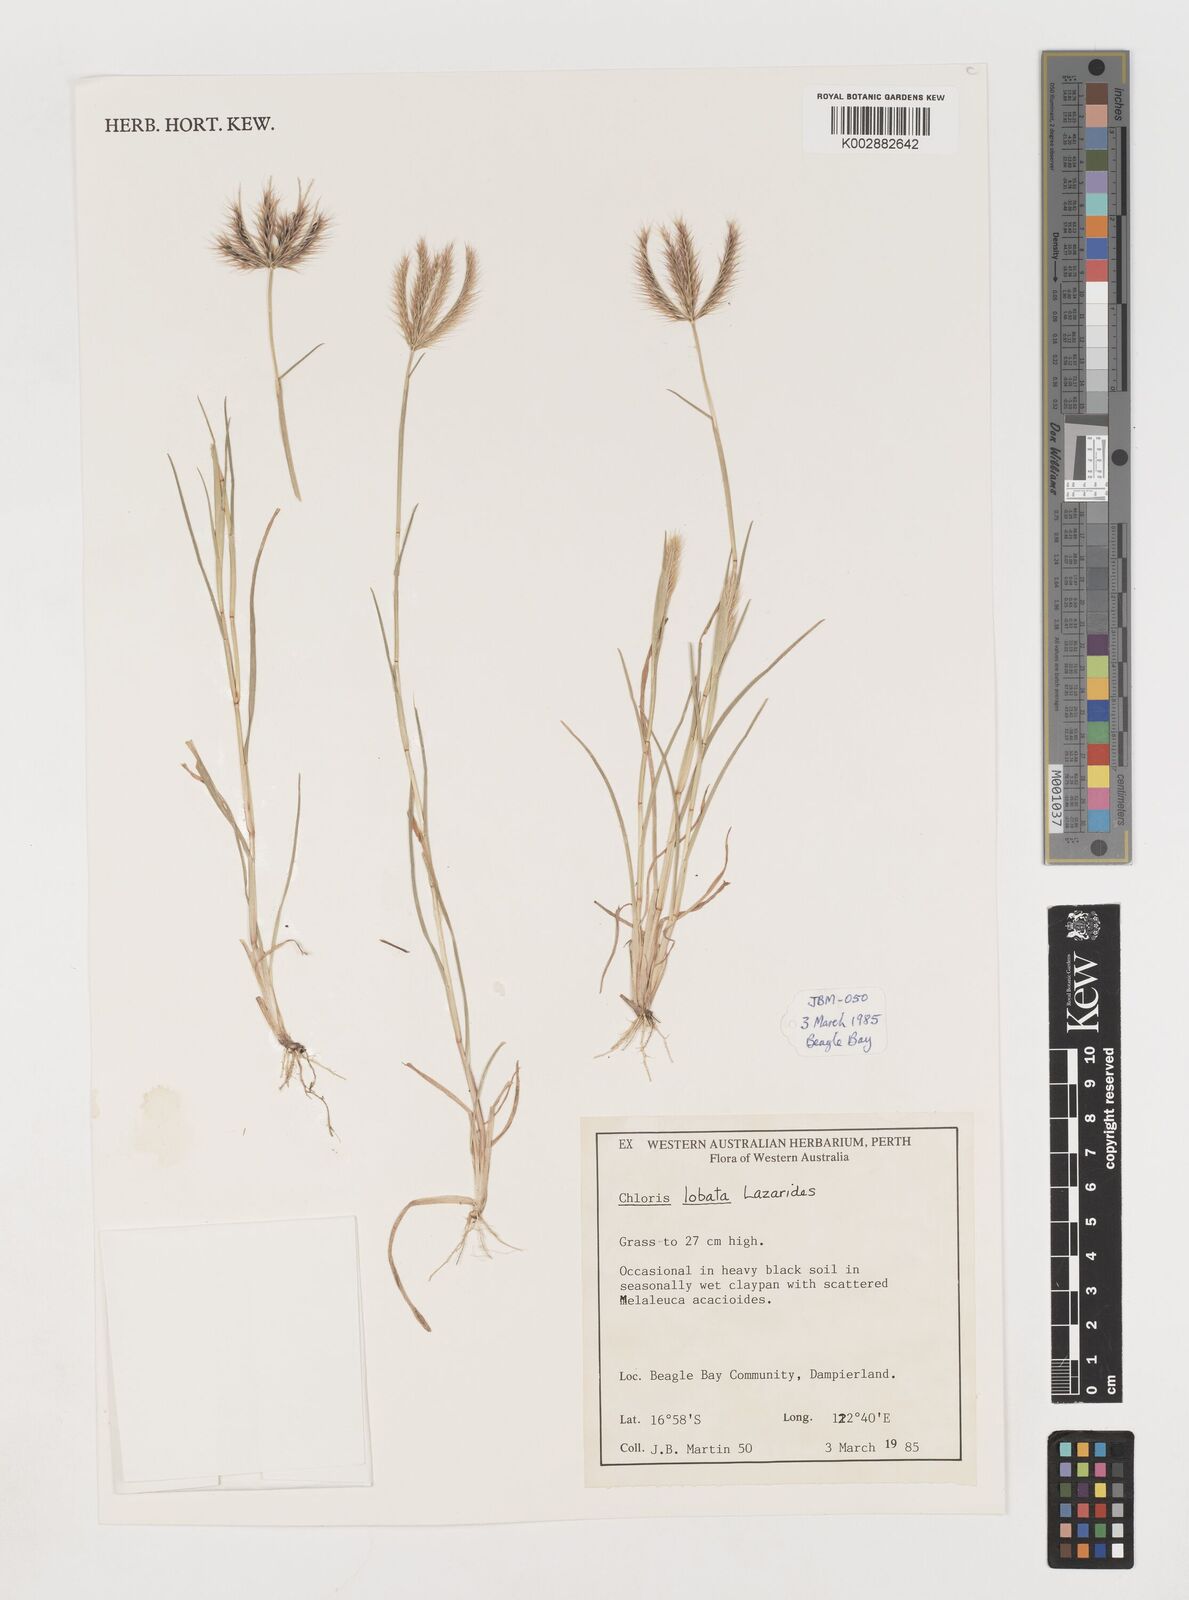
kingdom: Plantae
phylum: Tracheophyta
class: Liliopsida
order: Poales
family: Poaceae
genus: Chloris
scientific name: Chloris lobata
